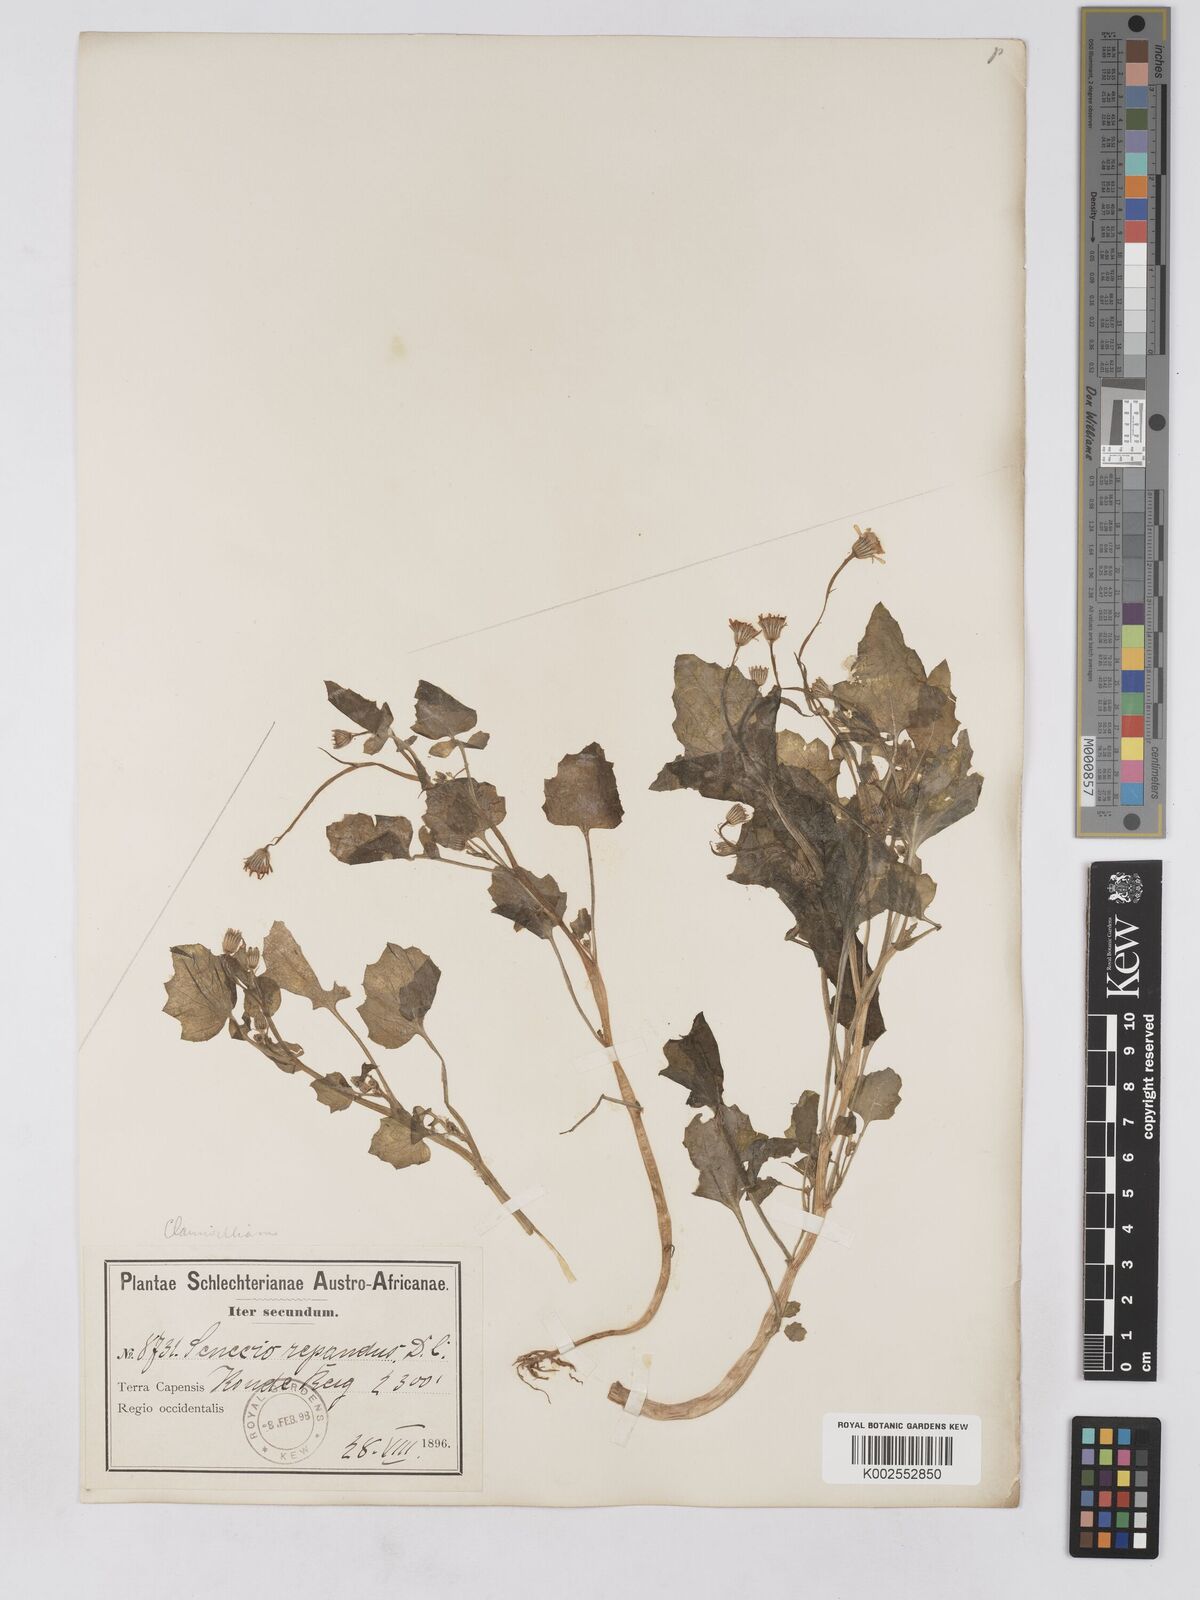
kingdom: Plantae
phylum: Tracheophyta
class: Magnoliopsida
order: Asterales
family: Asteraceae
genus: Senecio
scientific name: Senecio repandus
